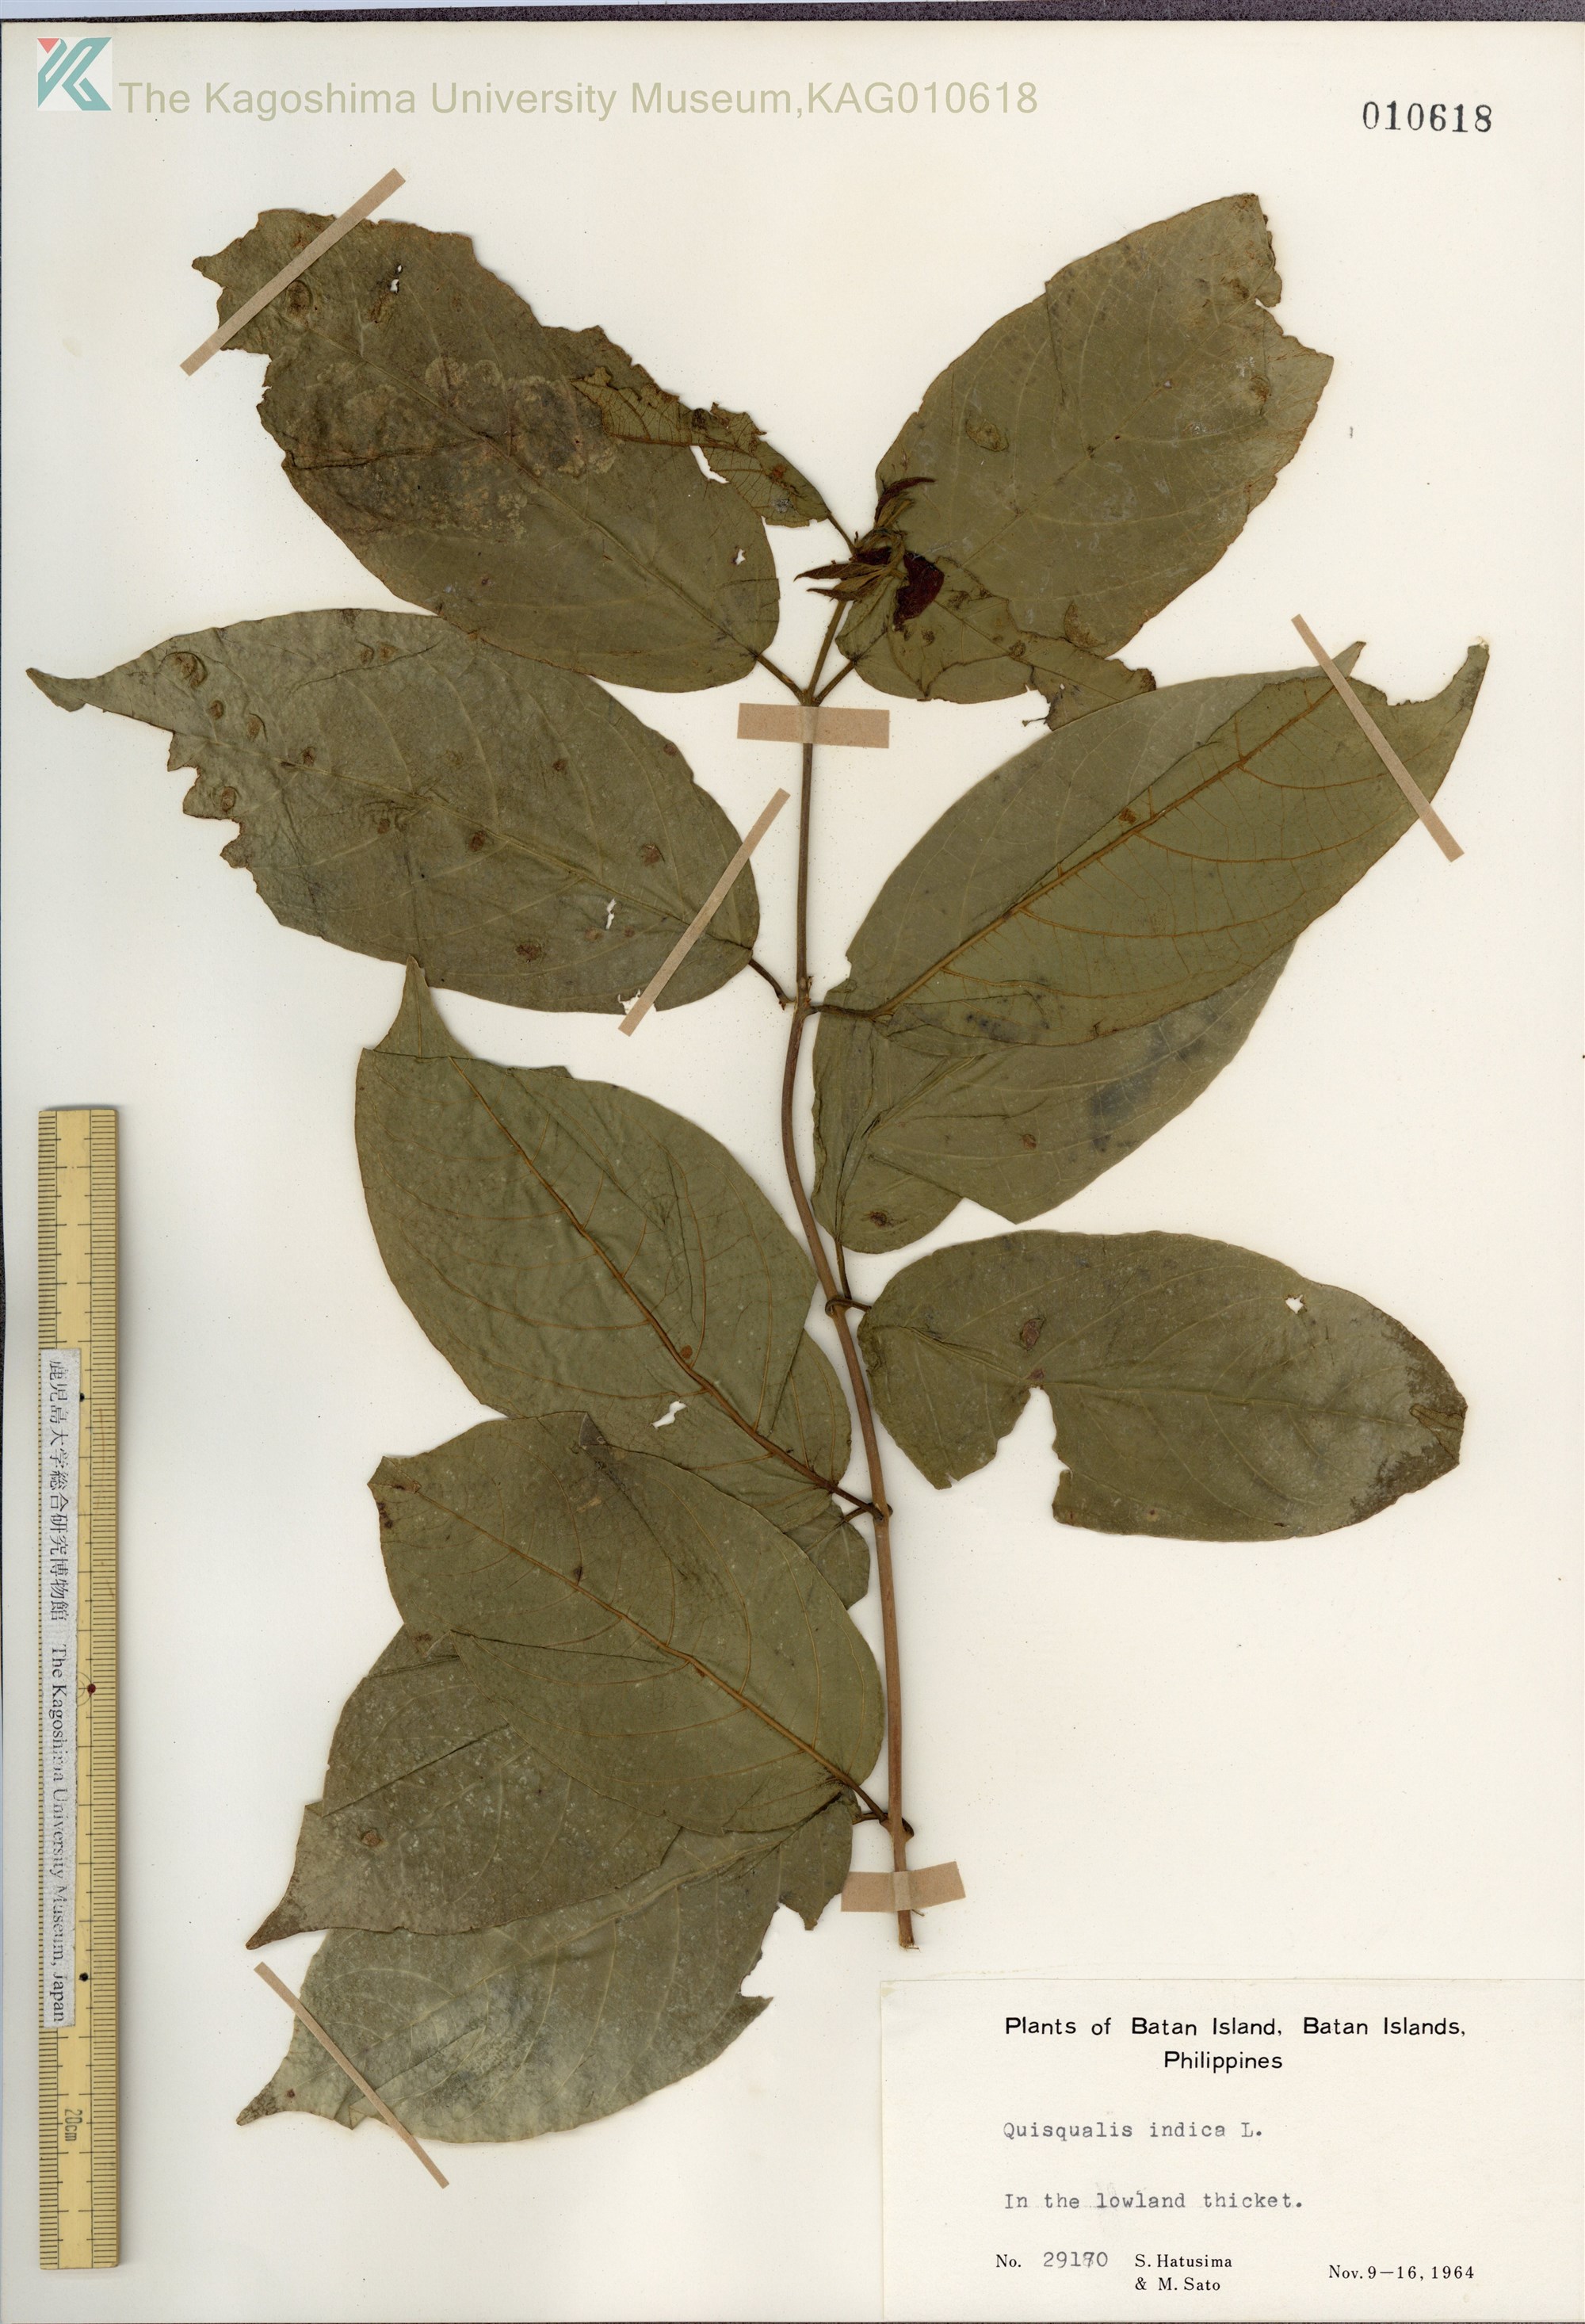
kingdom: Plantae
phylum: Tracheophyta
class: Magnoliopsida
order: Myrtales
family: Combretaceae
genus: Combretum
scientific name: Combretum indicum
